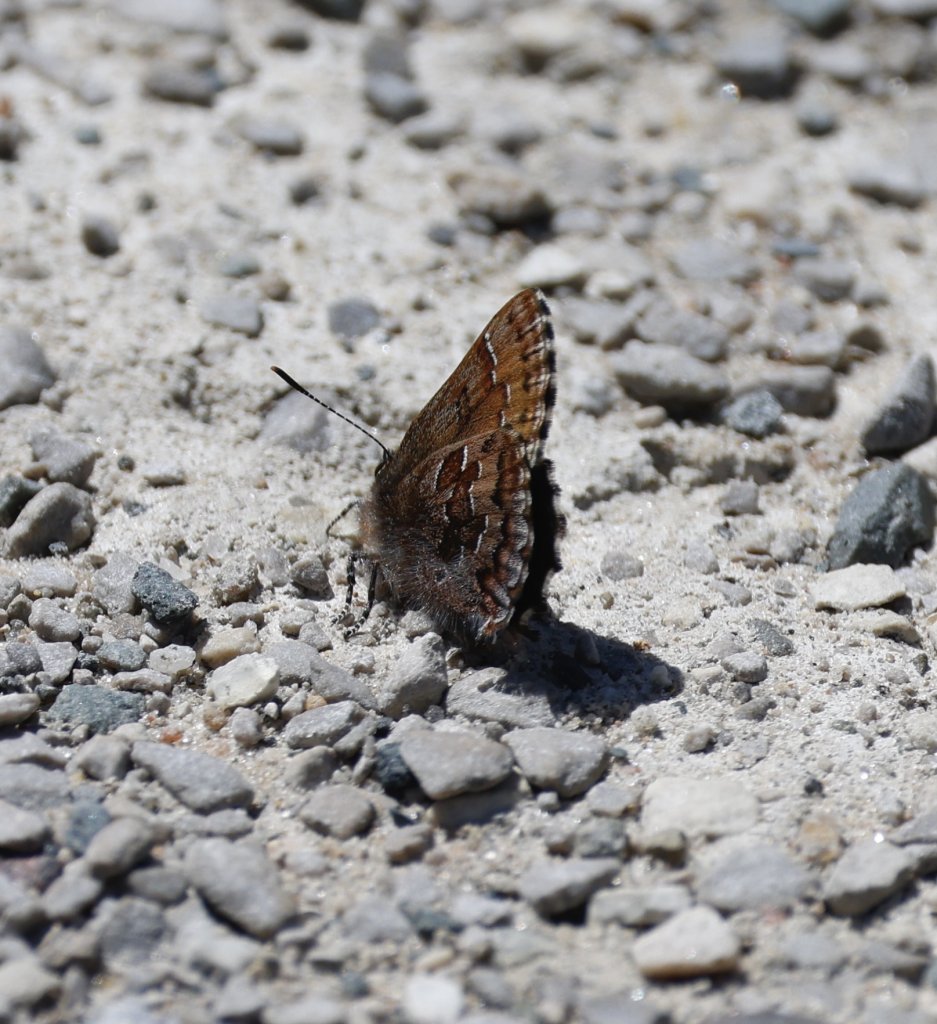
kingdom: Animalia
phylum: Arthropoda
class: Insecta
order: Lepidoptera
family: Lycaenidae
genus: Incisalia
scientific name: Incisalia niphon
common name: Eastern Pine Elfin
